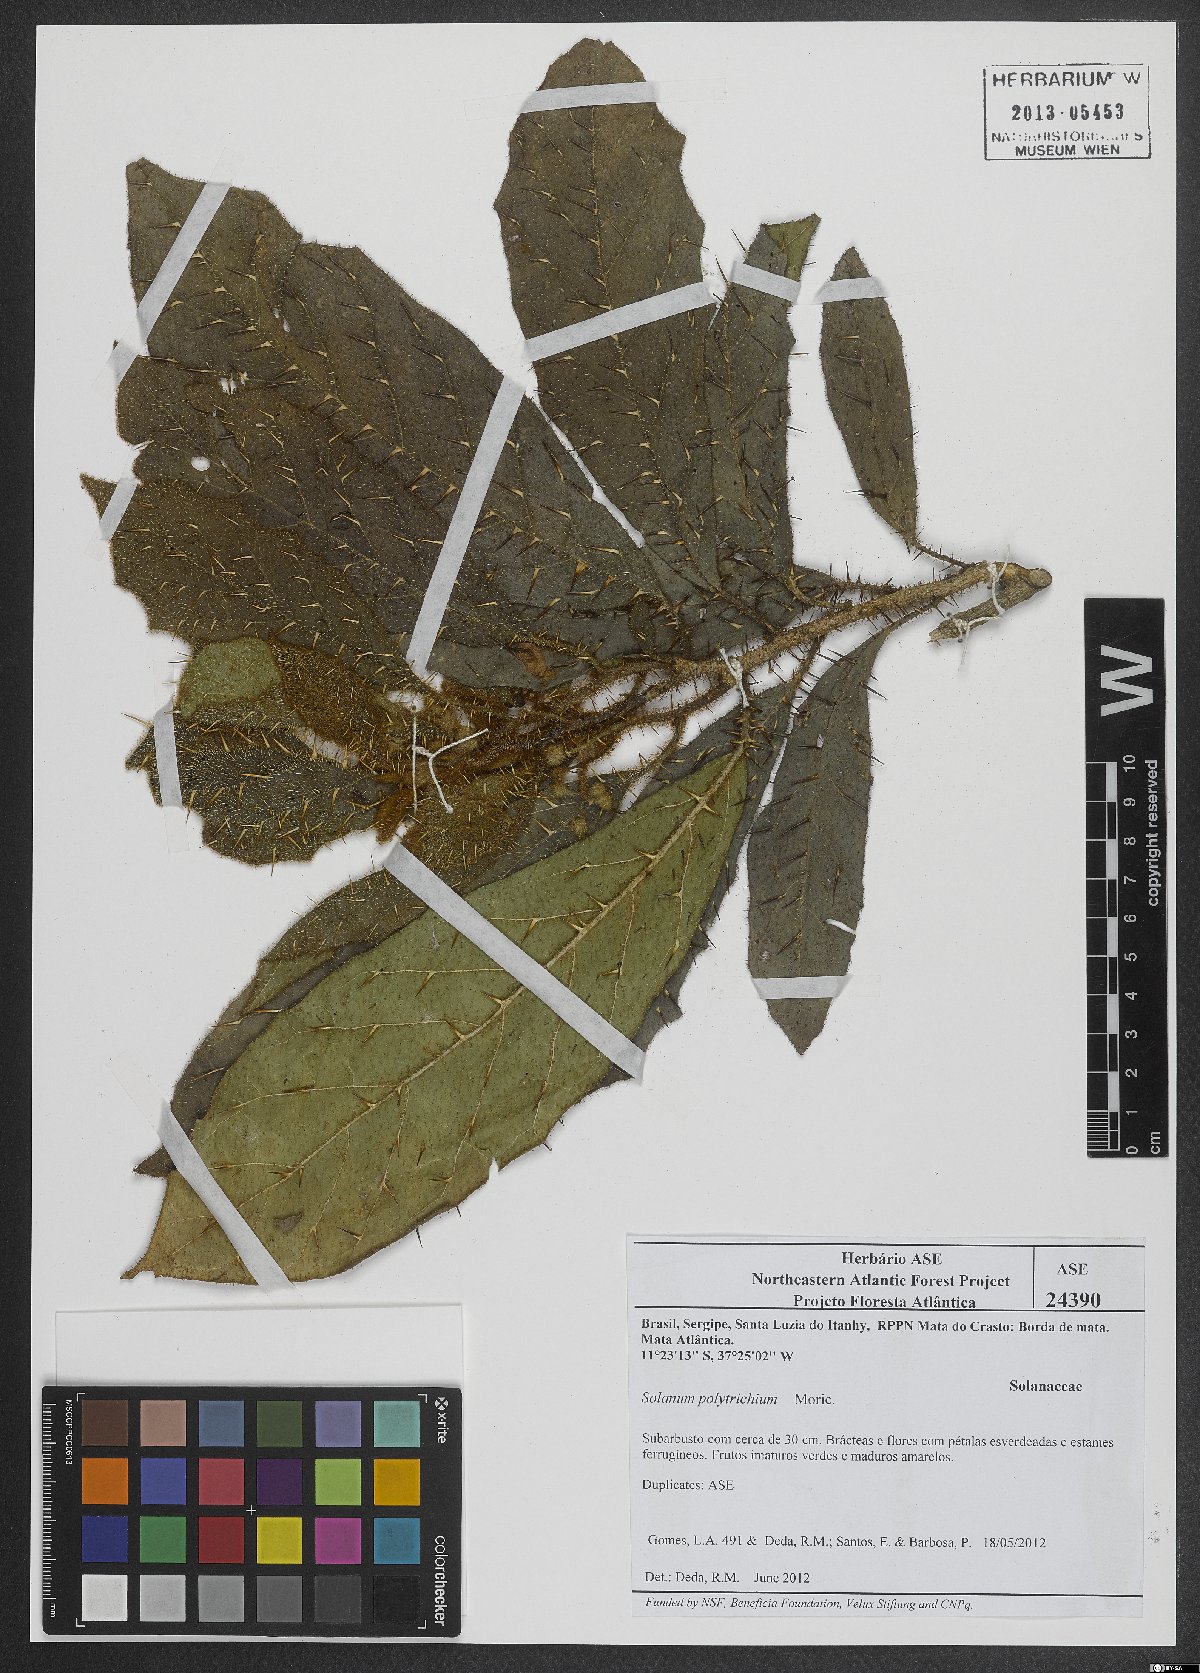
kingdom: Plantae
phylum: Tracheophyta
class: Magnoliopsida
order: Solanales
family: Solanaceae
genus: Solanum
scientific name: Solanum polytrichum
